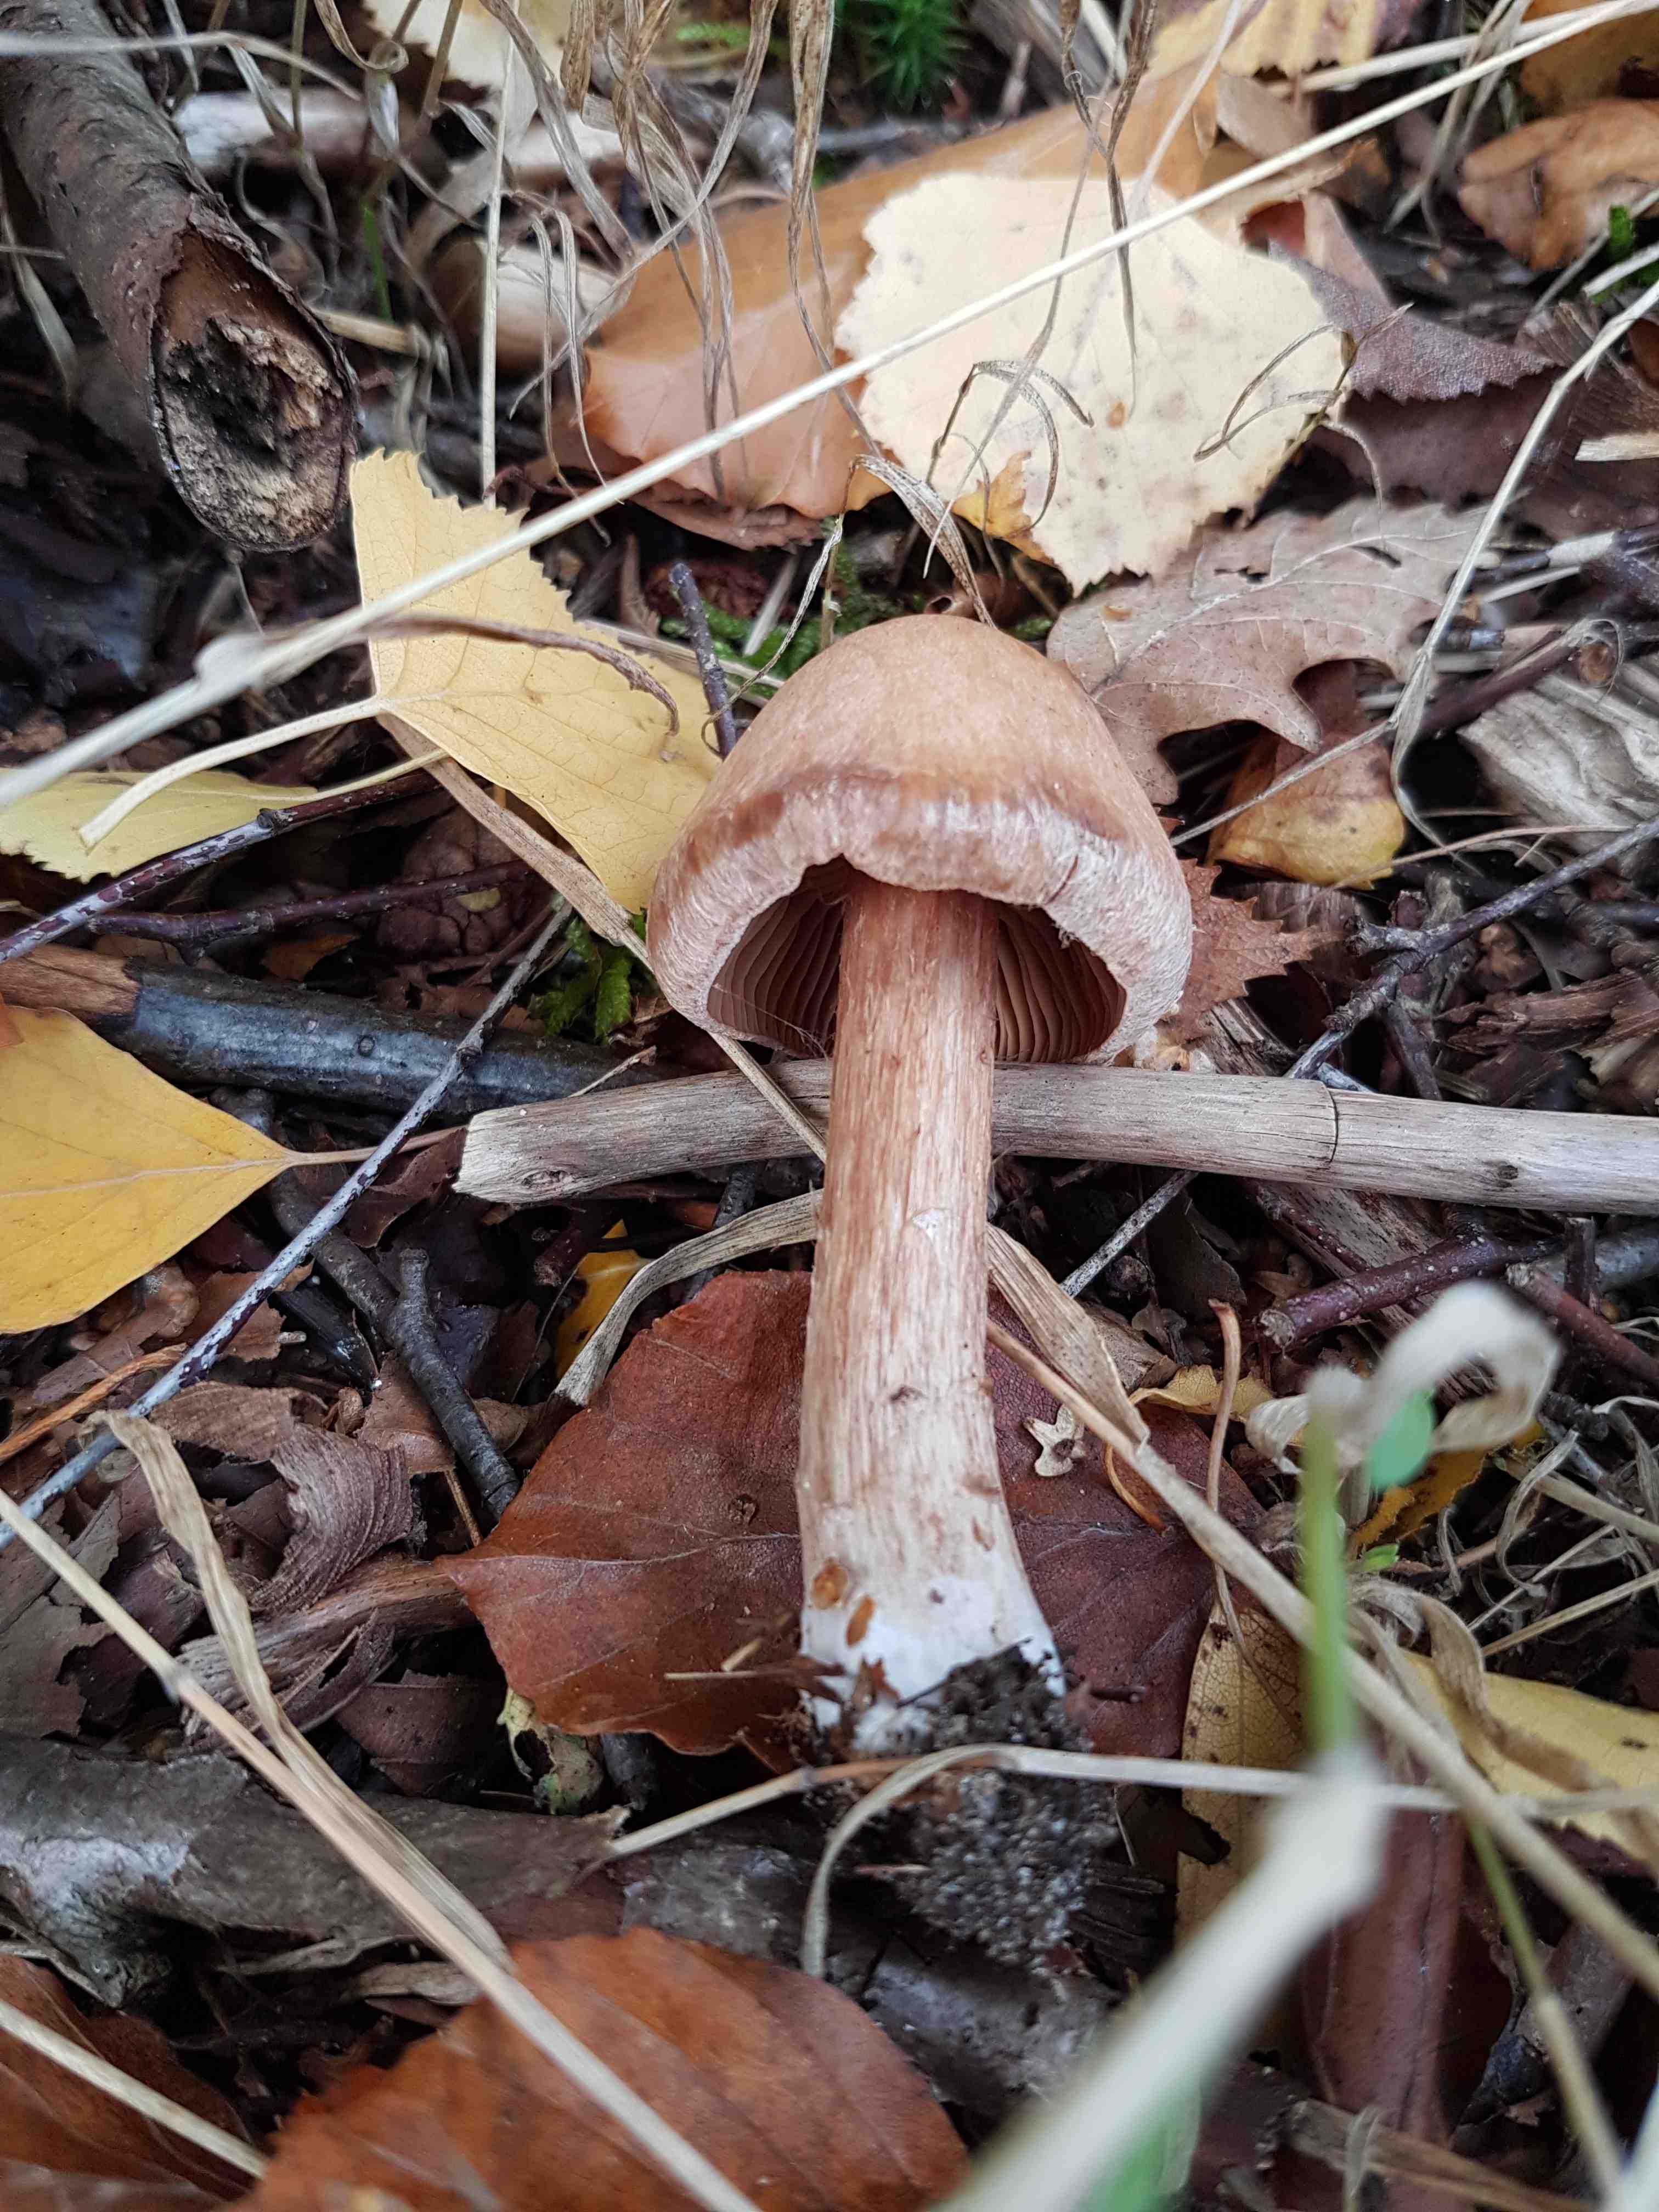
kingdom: Fungi
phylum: Basidiomycota
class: Agaricomycetes
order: Agaricales
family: Cortinariaceae
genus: Cortinarius
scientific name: Cortinarius
